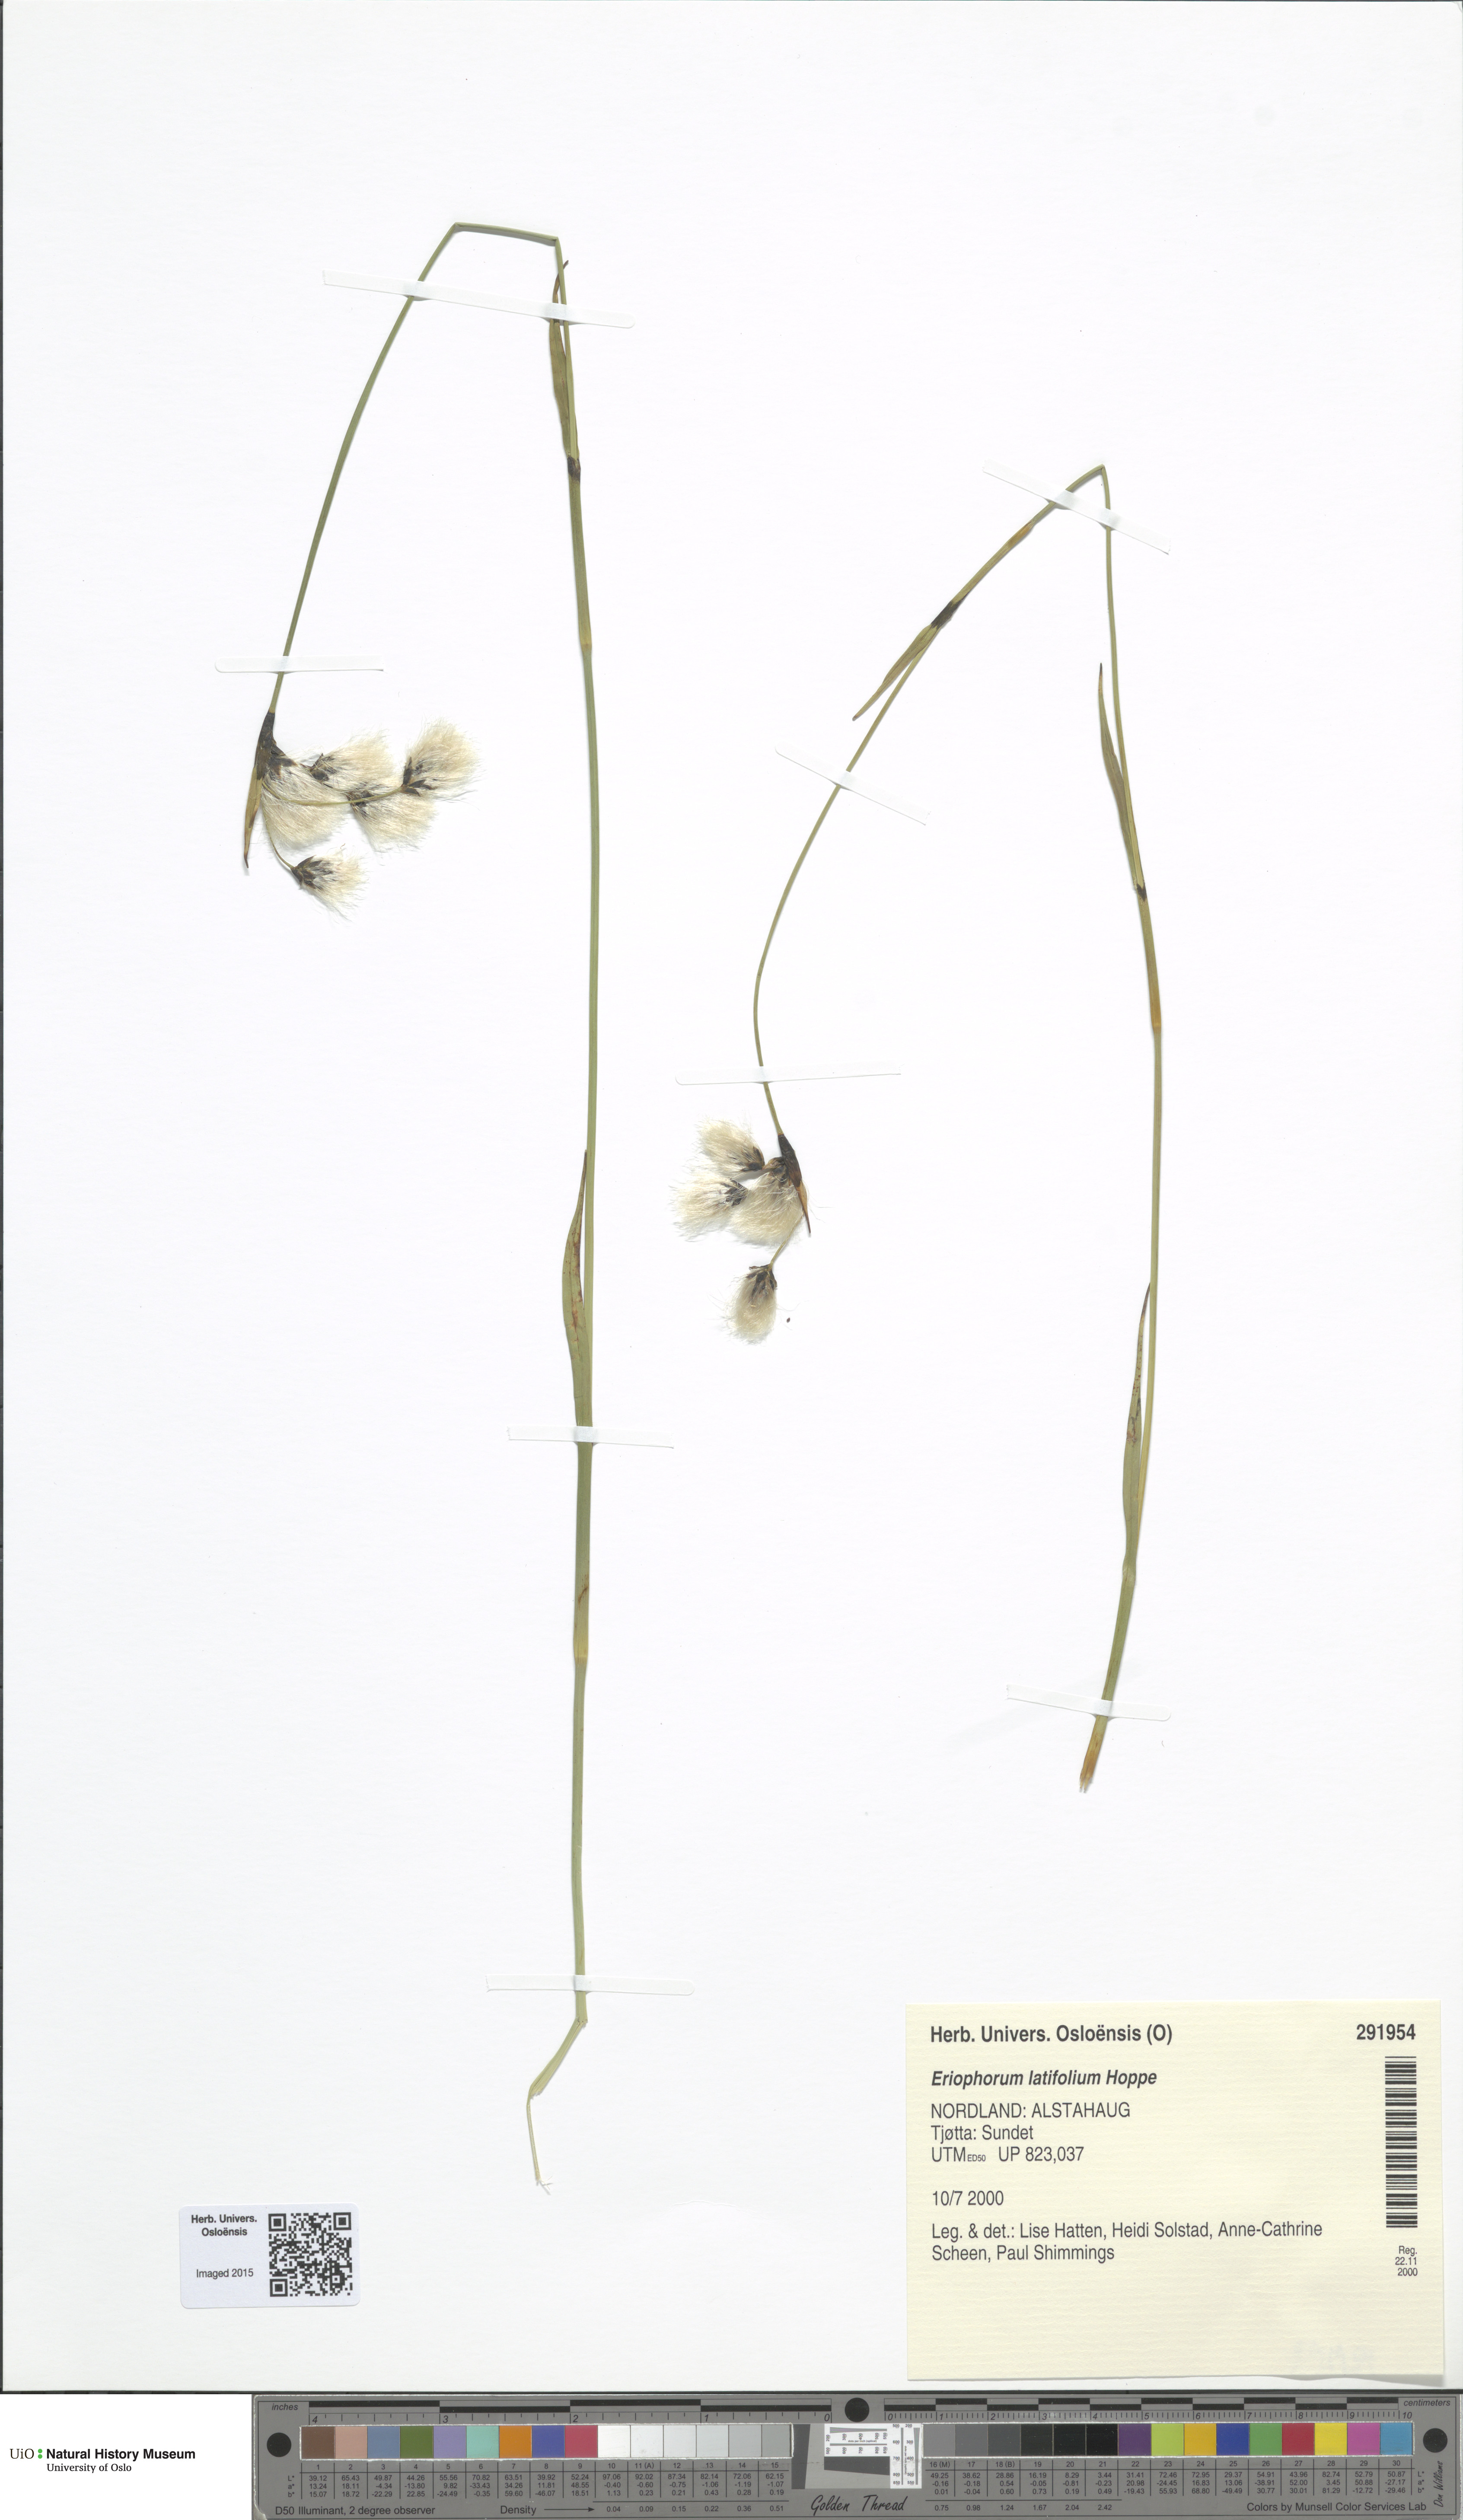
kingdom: Plantae
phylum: Tracheophyta
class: Liliopsida
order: Poales
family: Cyperaceae
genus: Eriophorum
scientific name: Eriophorum latifolium
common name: Broad-leaved cottongrass
